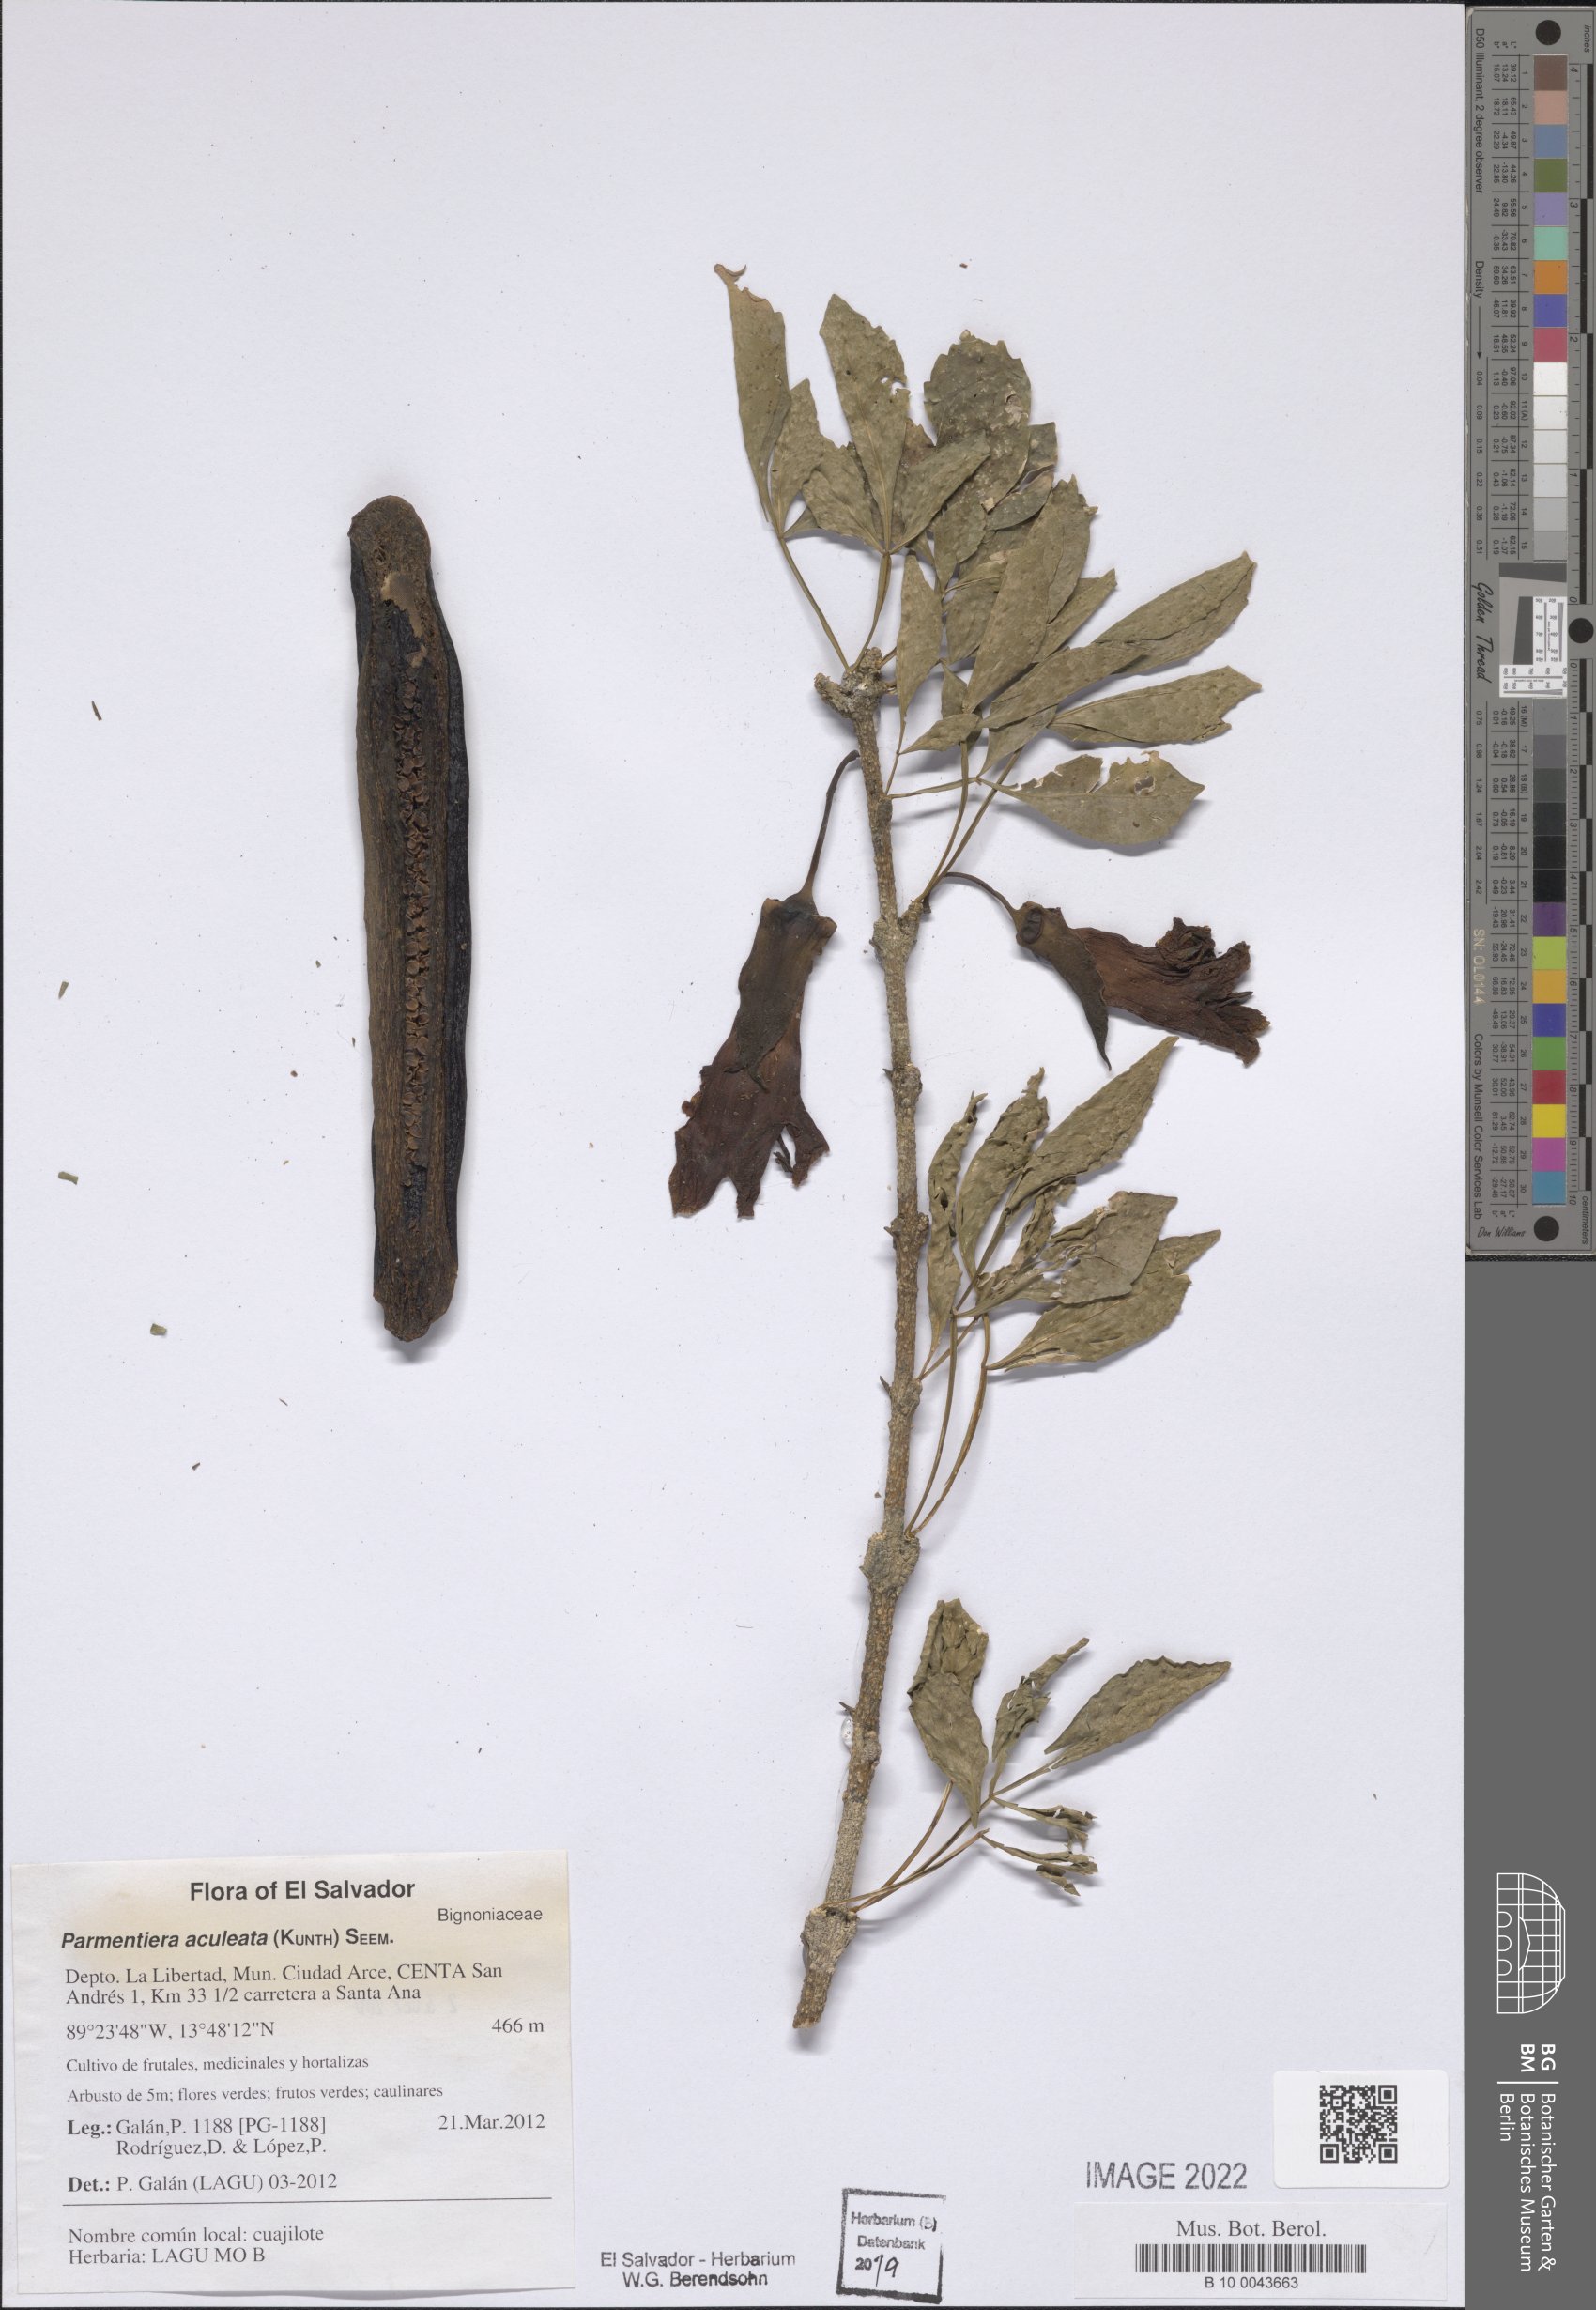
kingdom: Plantae
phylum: Tracheophyta
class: Magnoliopsida
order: Lamiales
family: Bignoniaceae
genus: Parmentiera
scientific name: Parmentiera aculeata
